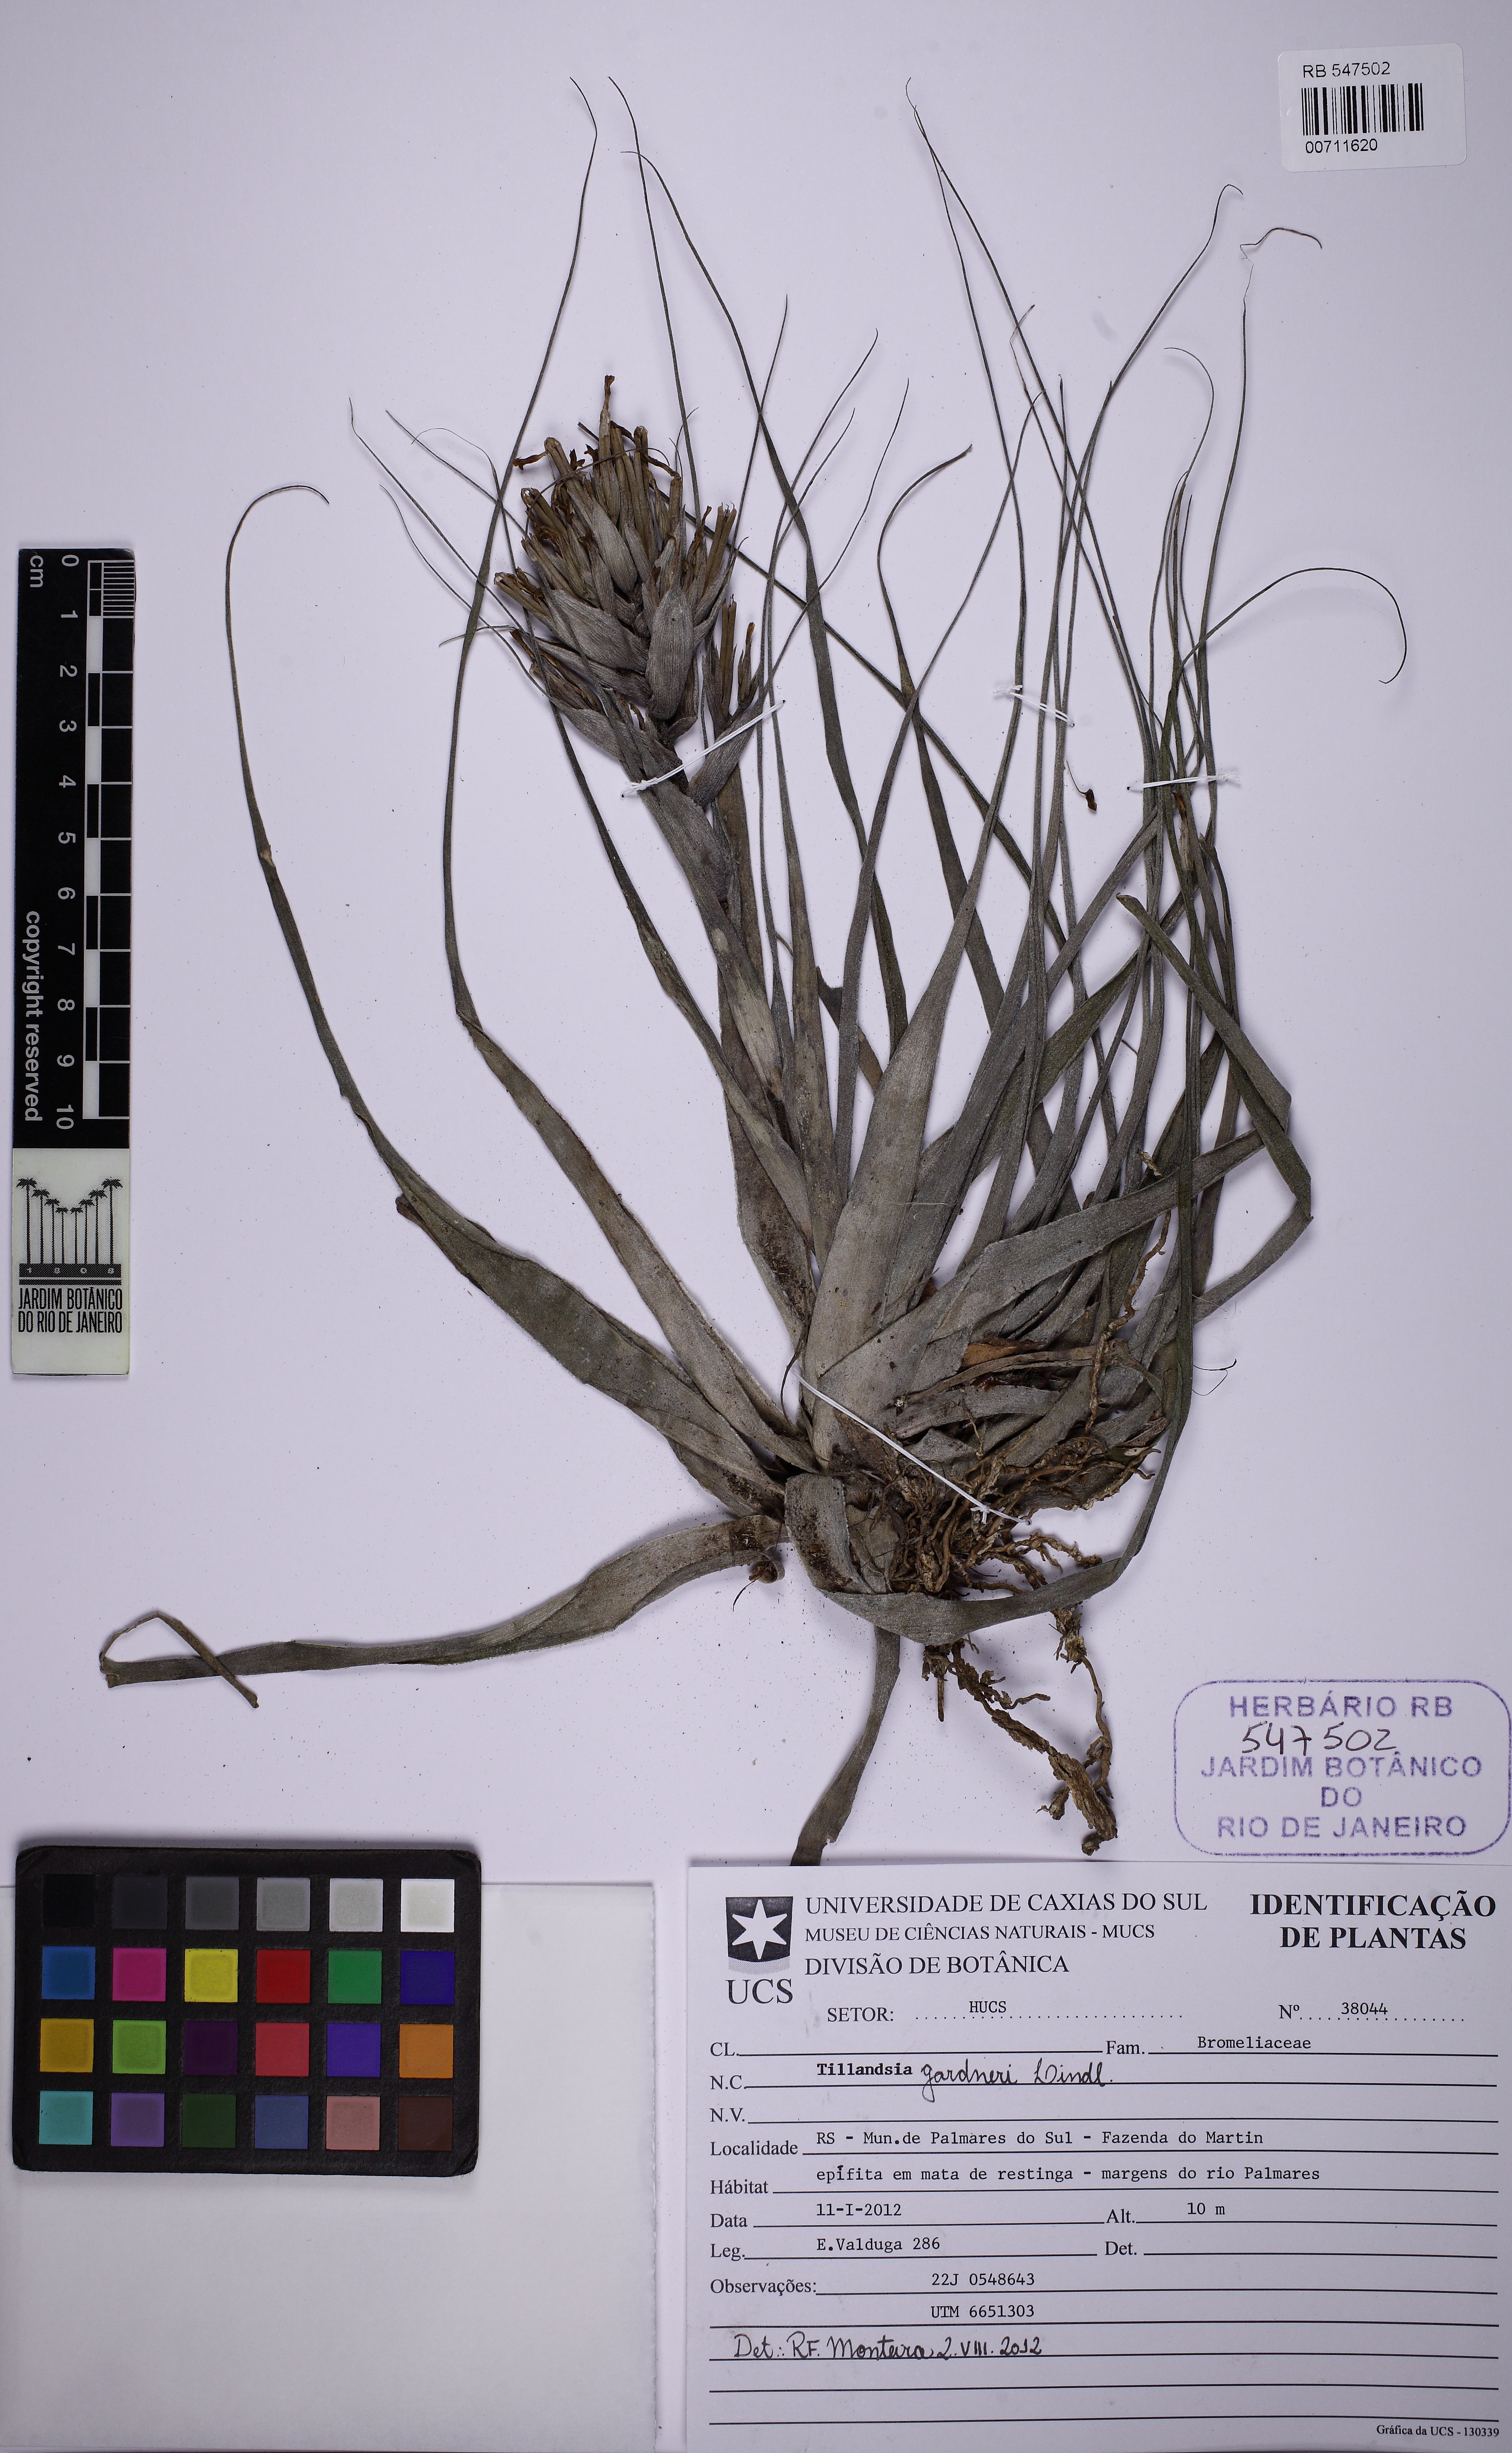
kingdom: Plantae
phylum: Tracheophyta
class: Liliopsida
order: Poales
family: Bromeliaceae
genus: Tillandsia
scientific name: Tillandsia geminiflora
